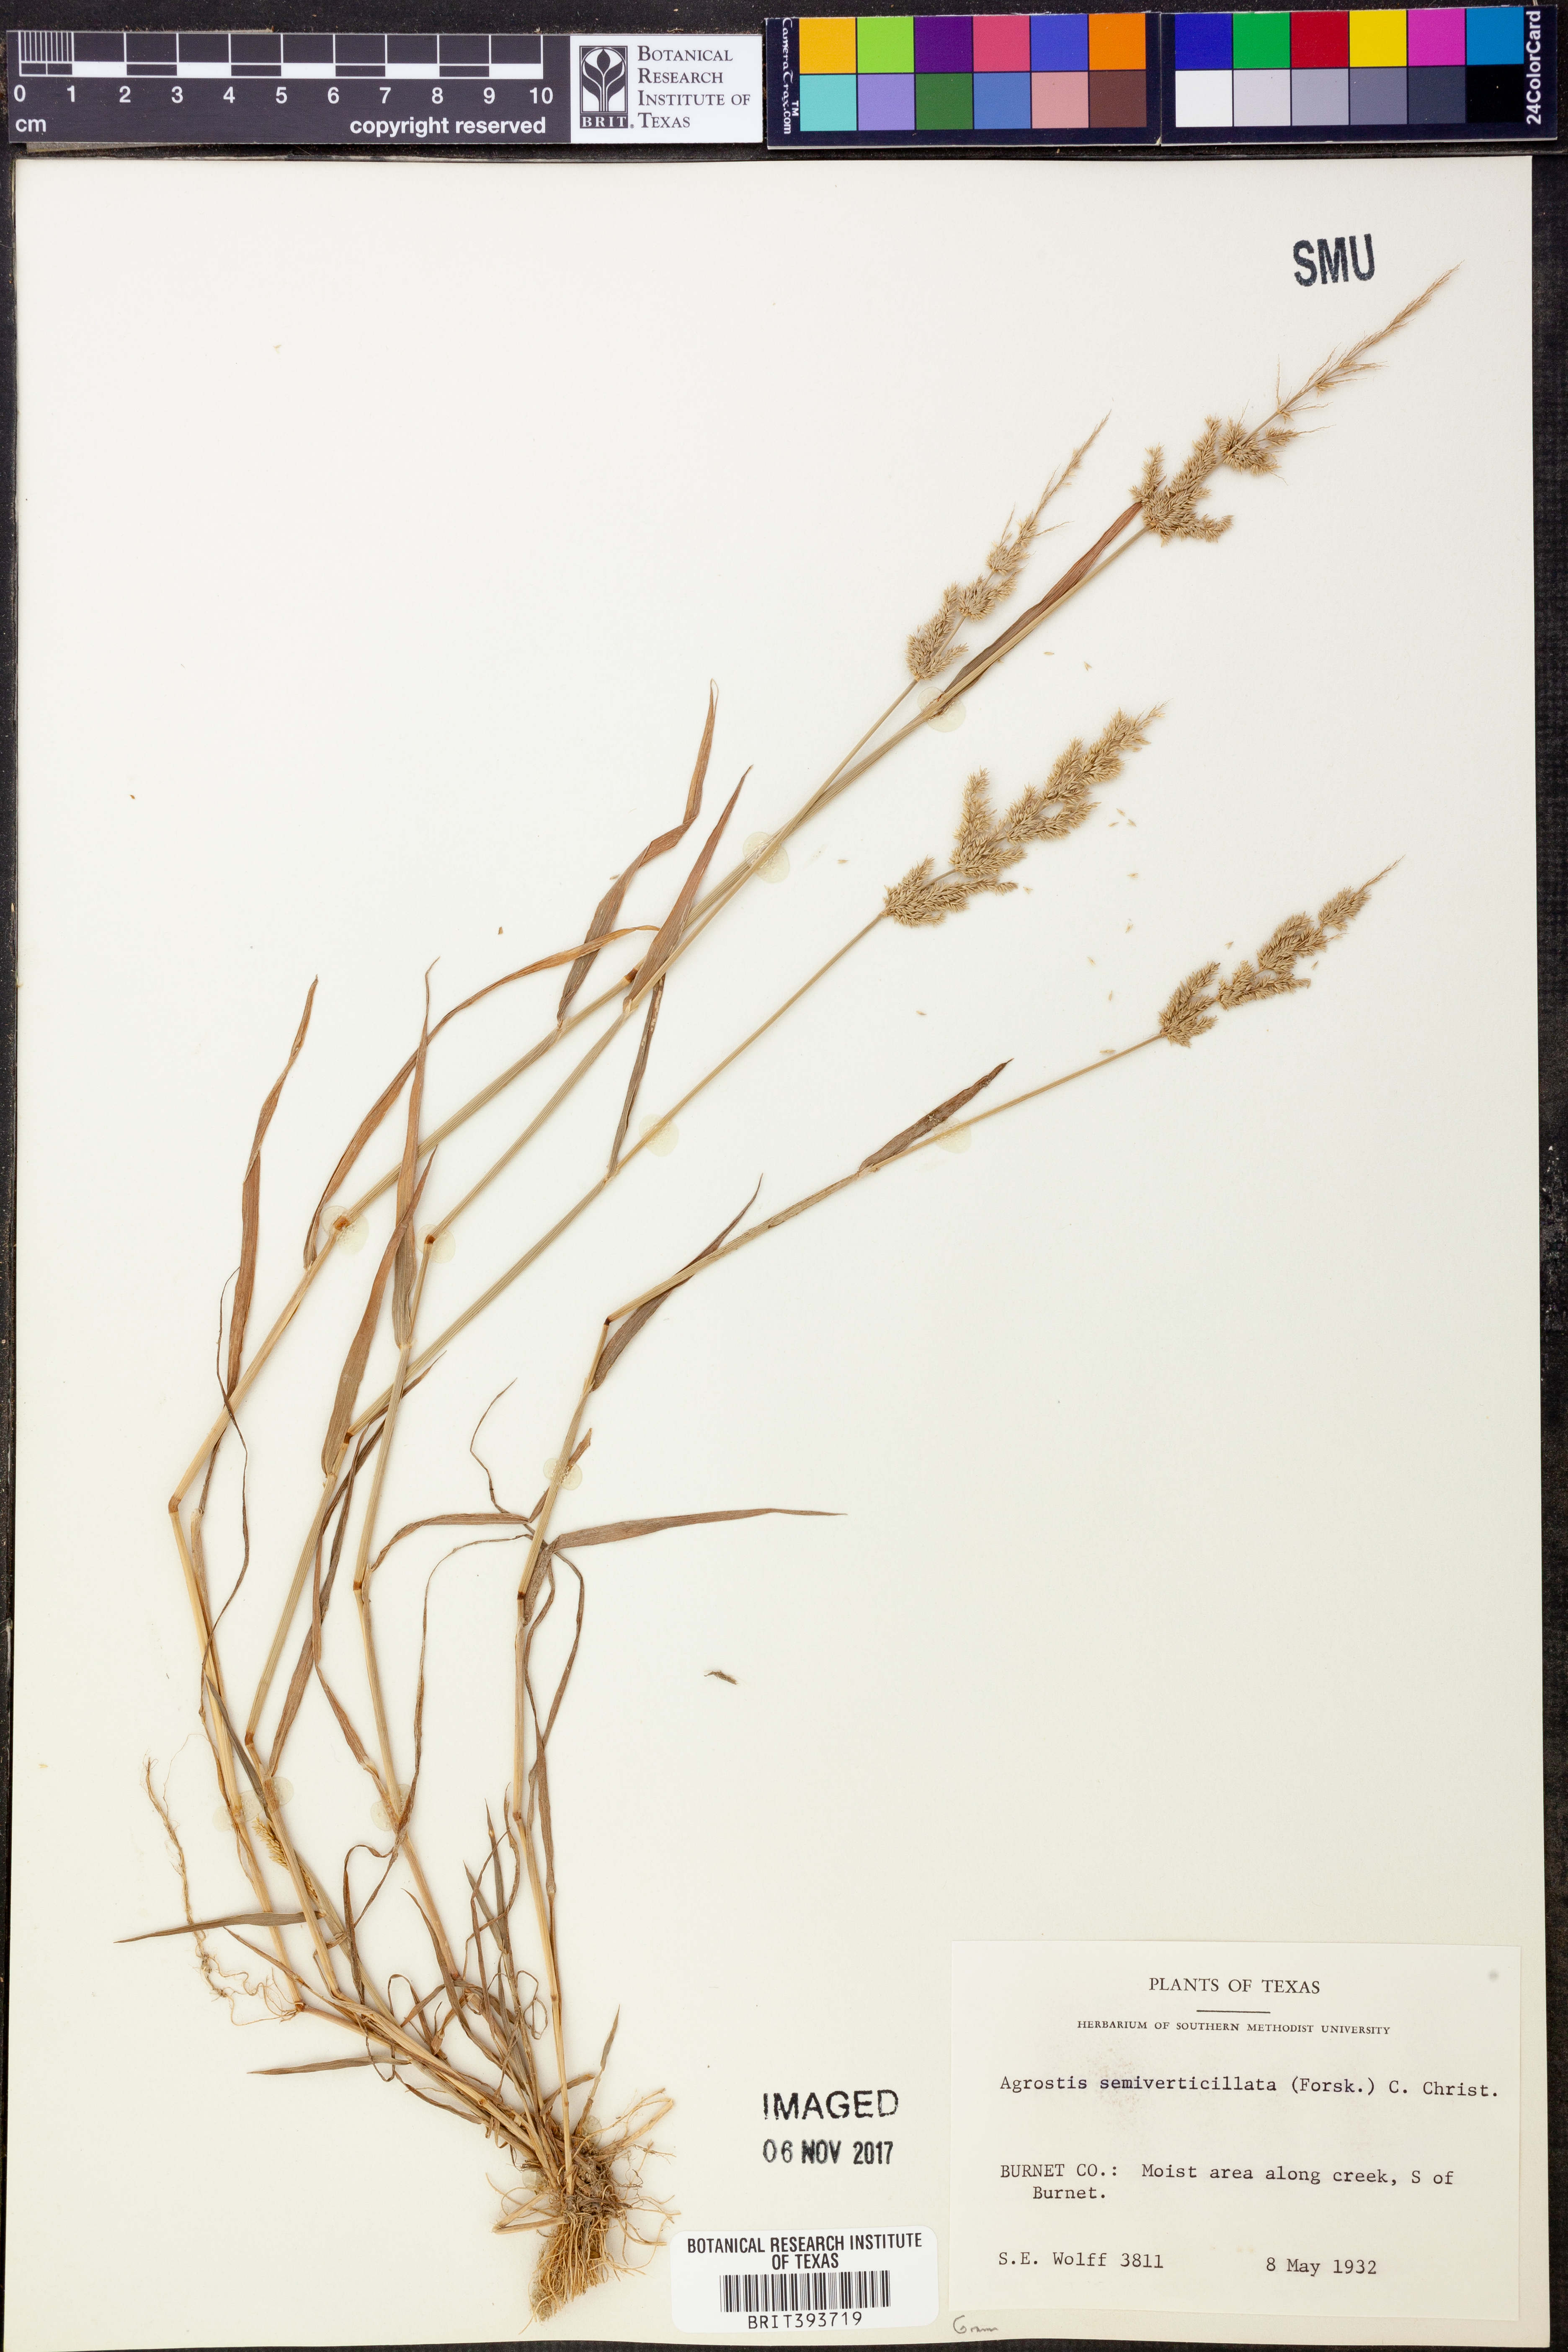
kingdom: Plantae
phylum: Tracheophyta
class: Liliopsida
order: Poales
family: Poaceae
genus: Polypogon
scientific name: Polypogon viridis
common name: Water bent
